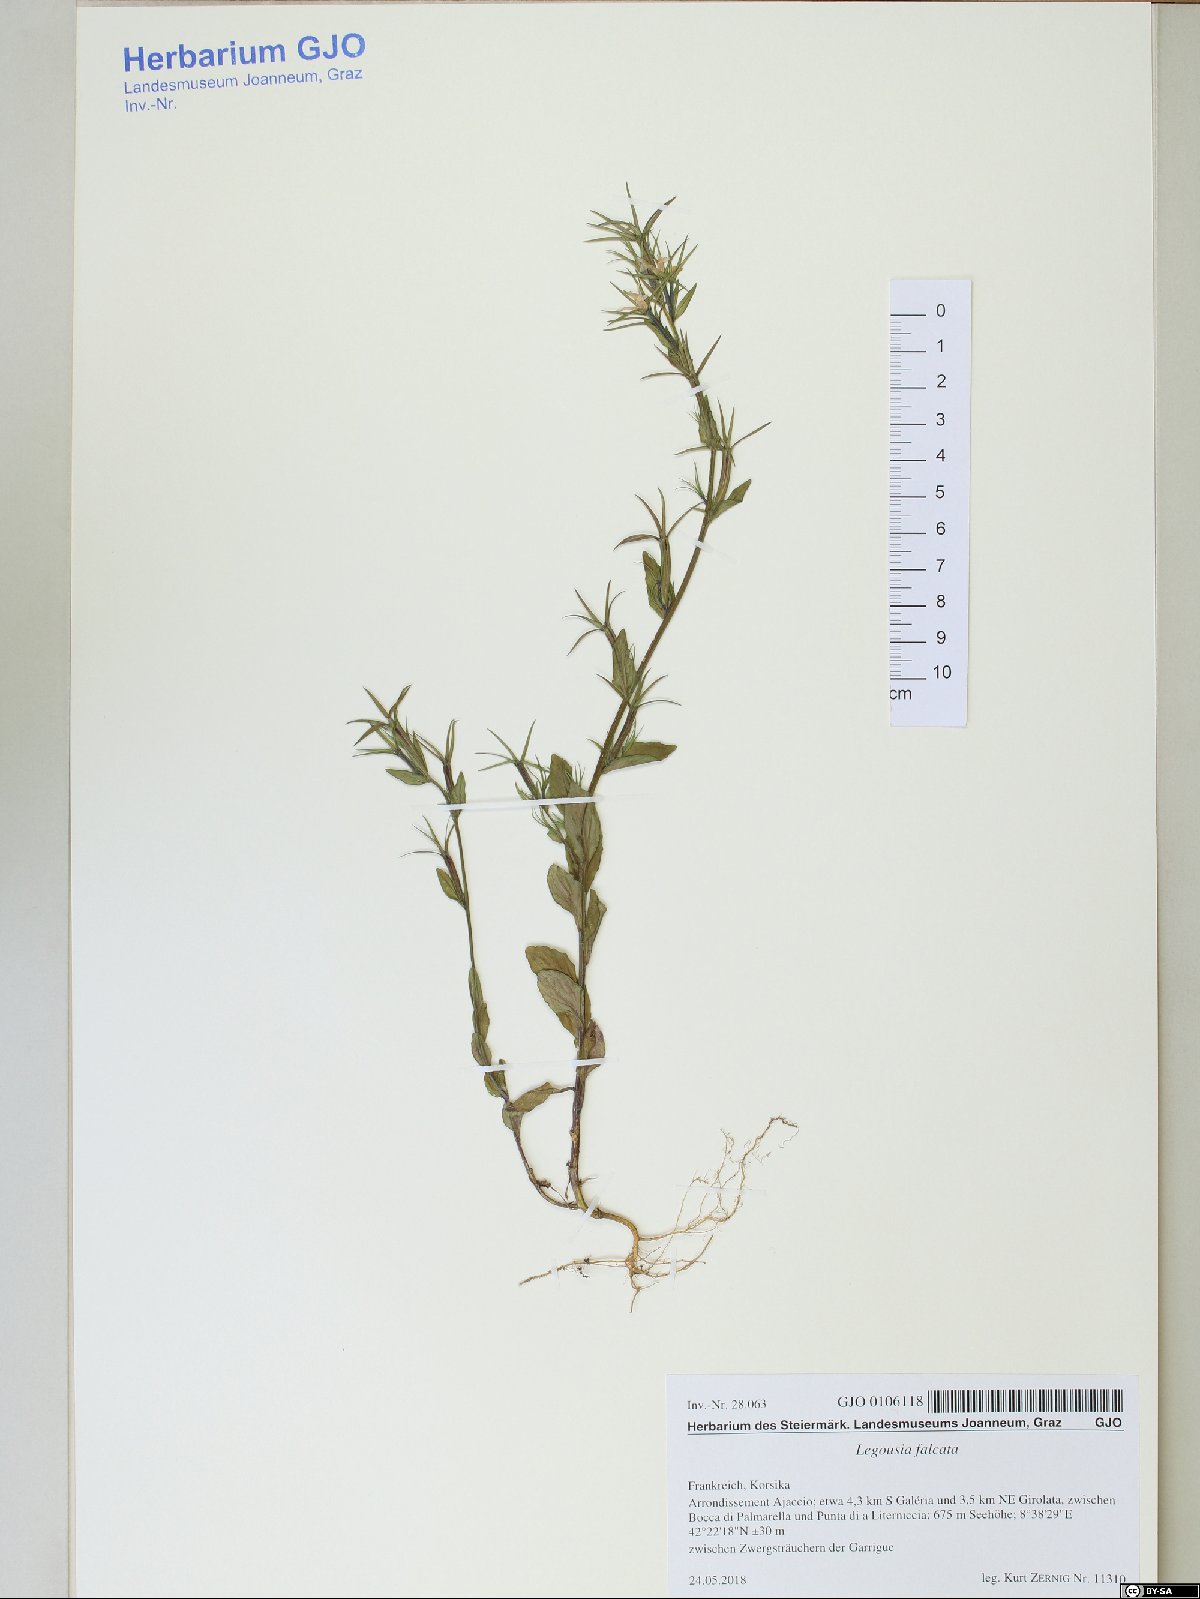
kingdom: Plantae
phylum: Tracheophyta
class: Magnoliopsida
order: Asterales
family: Campanulaceae
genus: Legousia
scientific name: Legousia falcata
